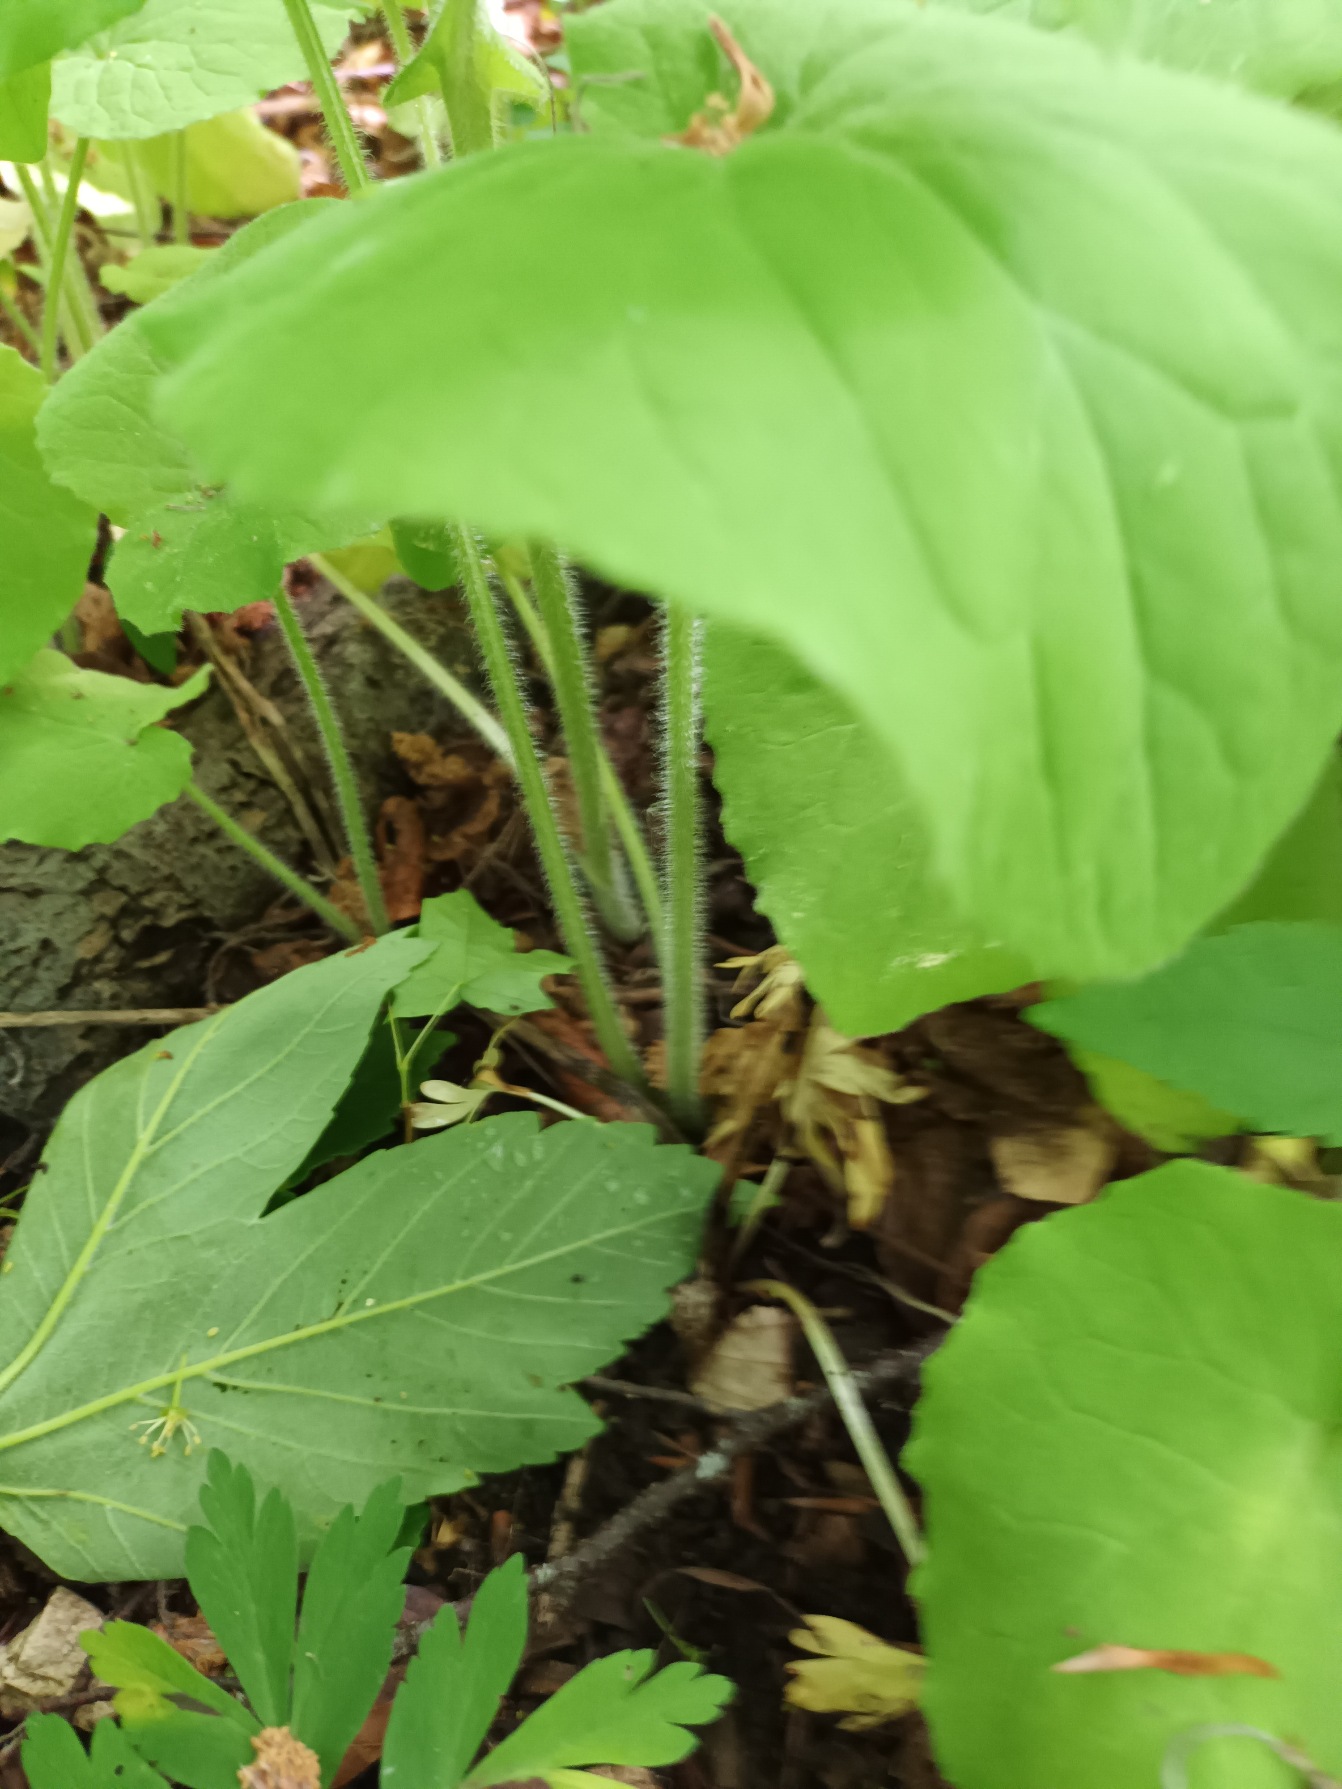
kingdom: Plantae
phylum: Tracheophyta
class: Magnoliopsida
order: Asterales
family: Asteraceae
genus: Doronicum
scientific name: Doronicum pardalianches
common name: Hjertebladet gemserod
